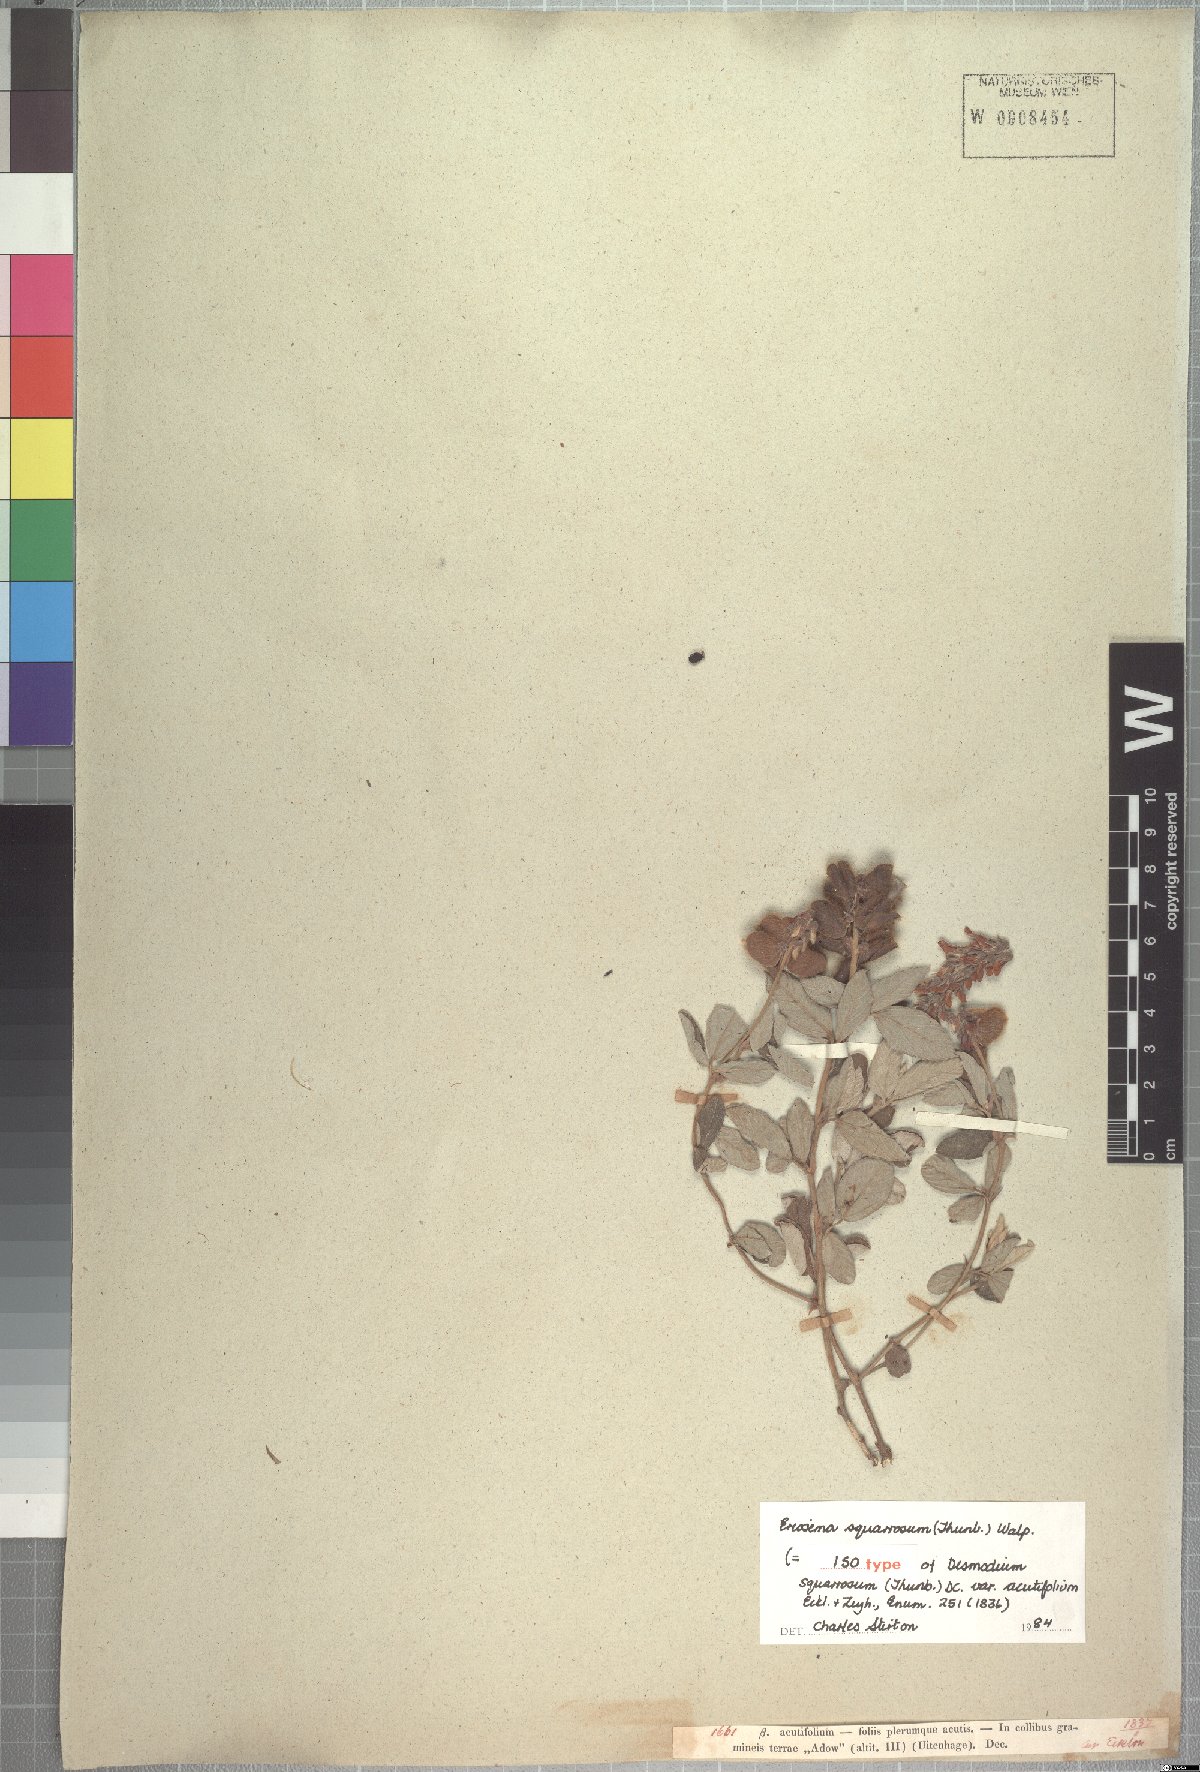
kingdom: Plantae
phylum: Tracheophyta
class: Magnoliopsida
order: Fabales
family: Fabaceae
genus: Eriosema
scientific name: Eriosema squarrosum
